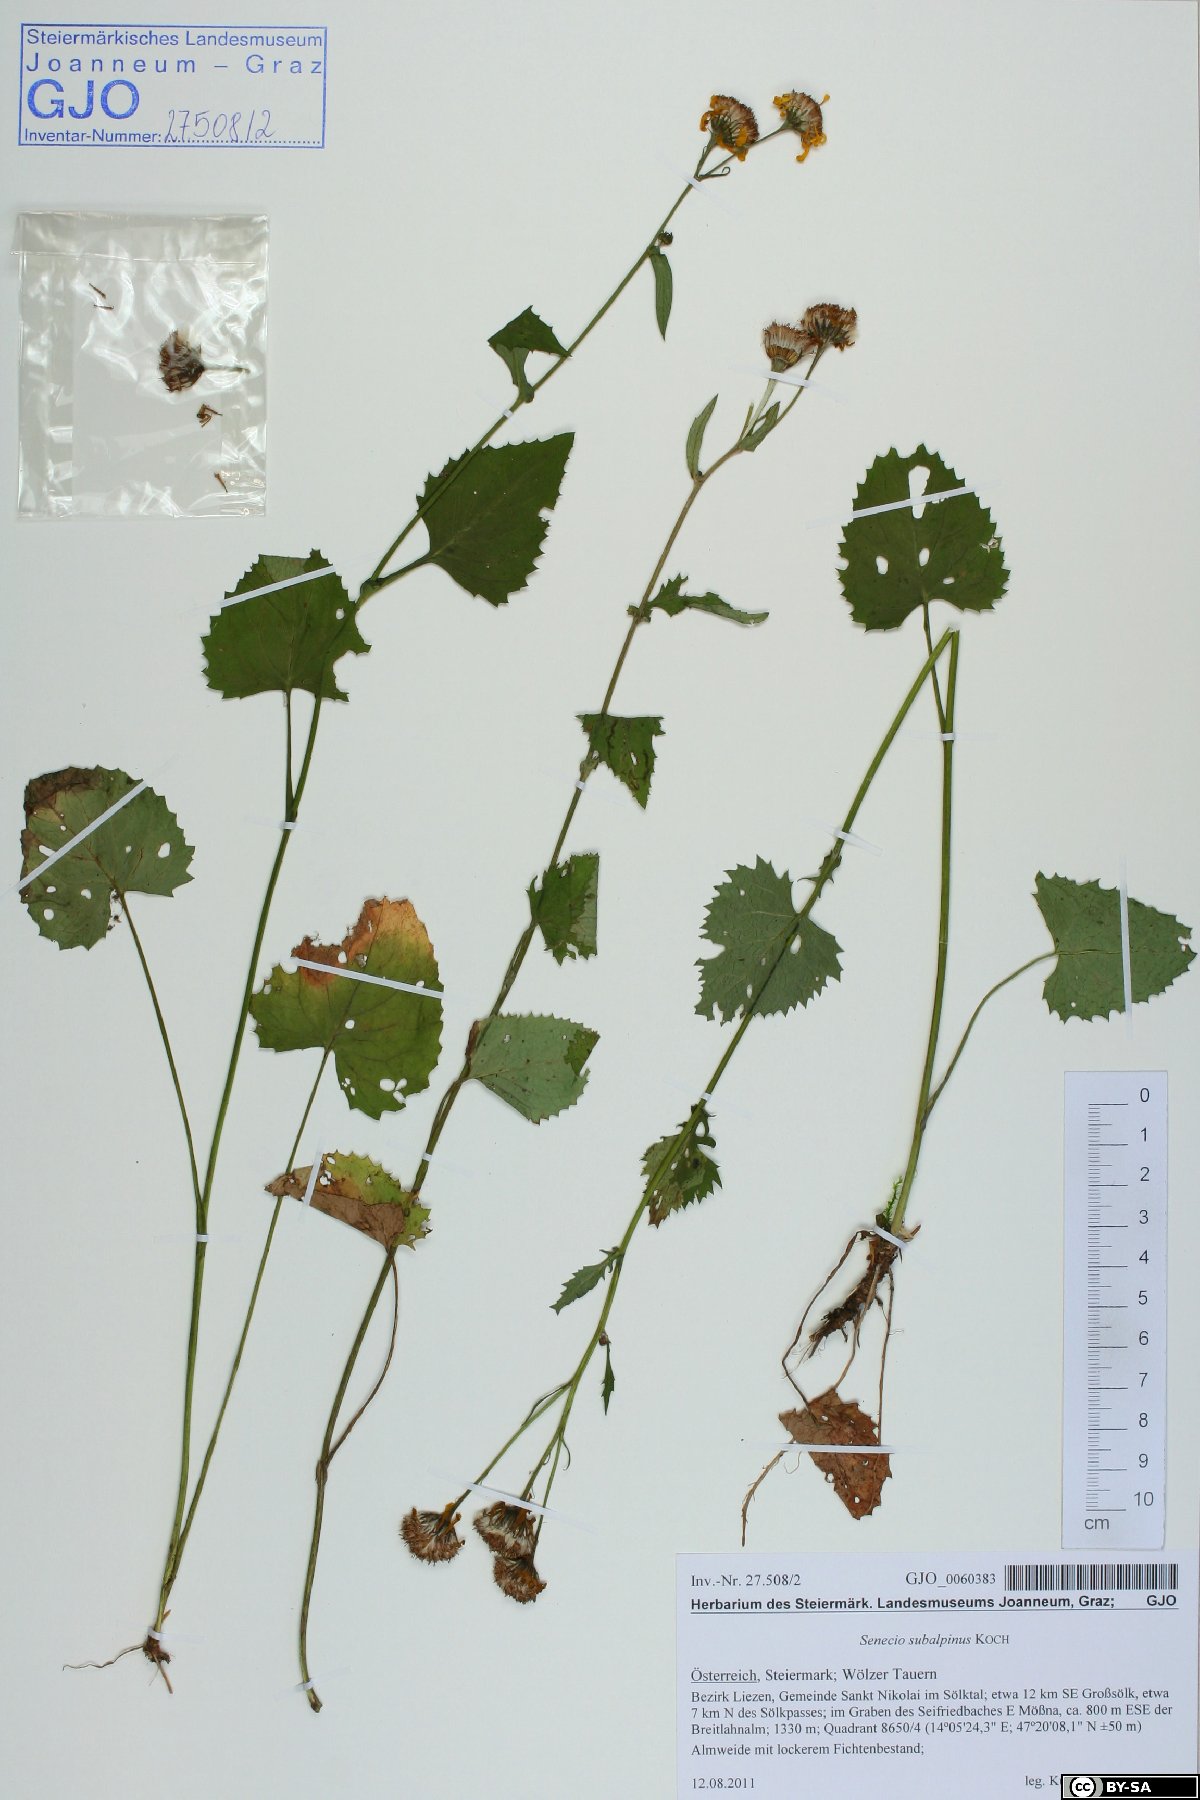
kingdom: Plantae
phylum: Tracheophyta
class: Magnoliopsida
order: Asterales
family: Asteraceae
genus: Jacobaea
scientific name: Jacobaea subalpina
